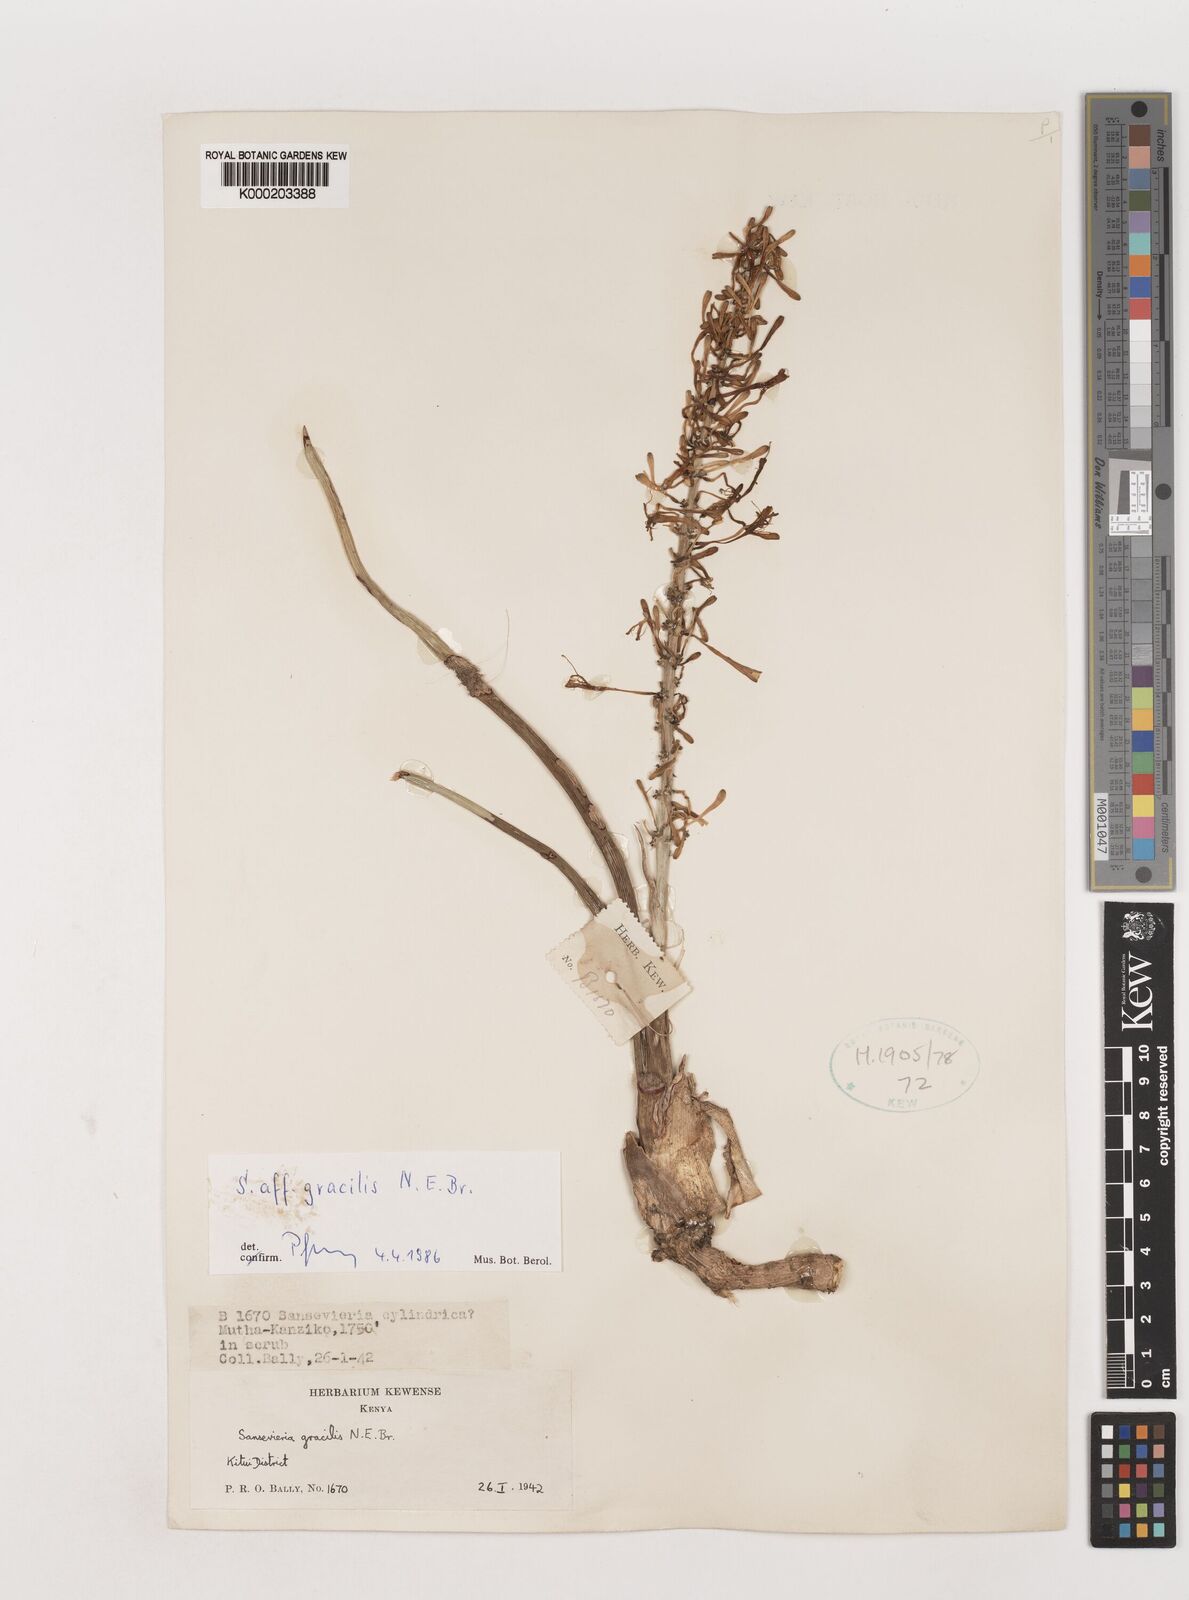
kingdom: Plantae
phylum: Tracheophyta
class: Liliopsida
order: Asparagales
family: Asparagaceae
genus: Dracaena
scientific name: Dracaena serpenta
